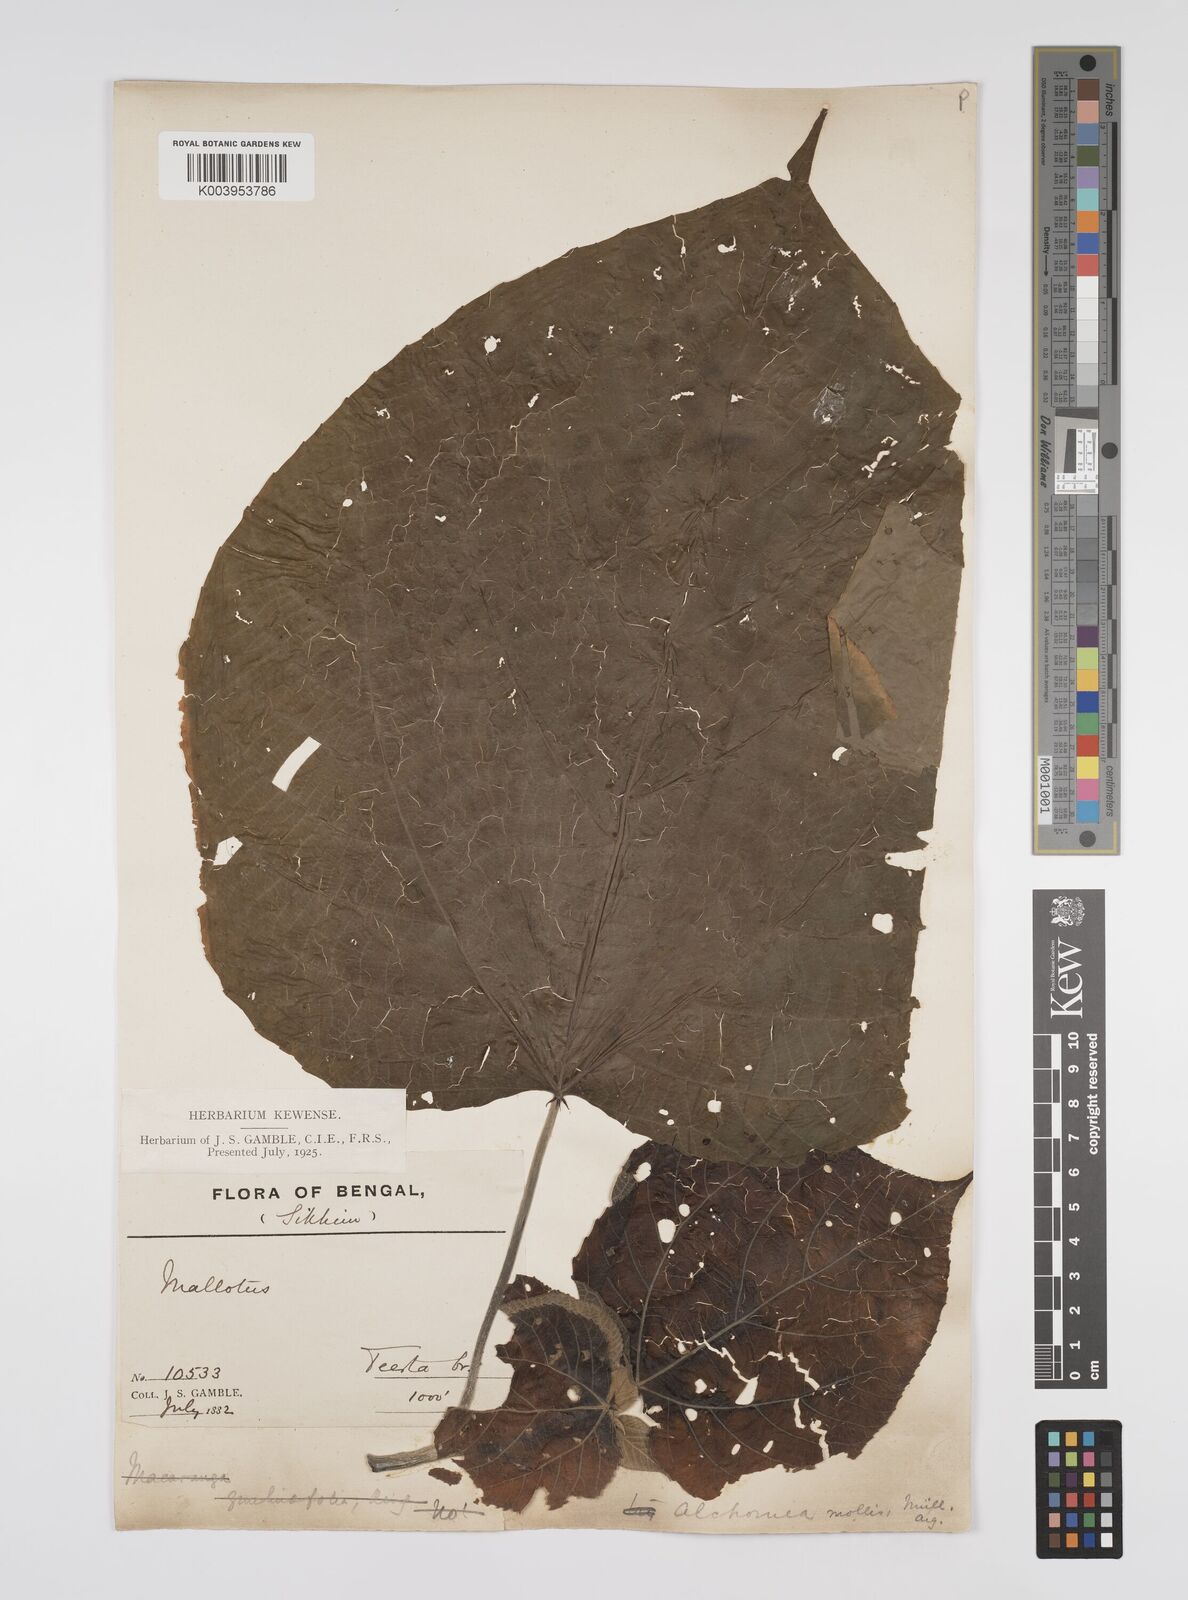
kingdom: Plantae
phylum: Tracheophyta
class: Magnoliopsida
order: Malpighiales
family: Euphorbiaceae
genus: Alchornea
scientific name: Alchornea mollis
